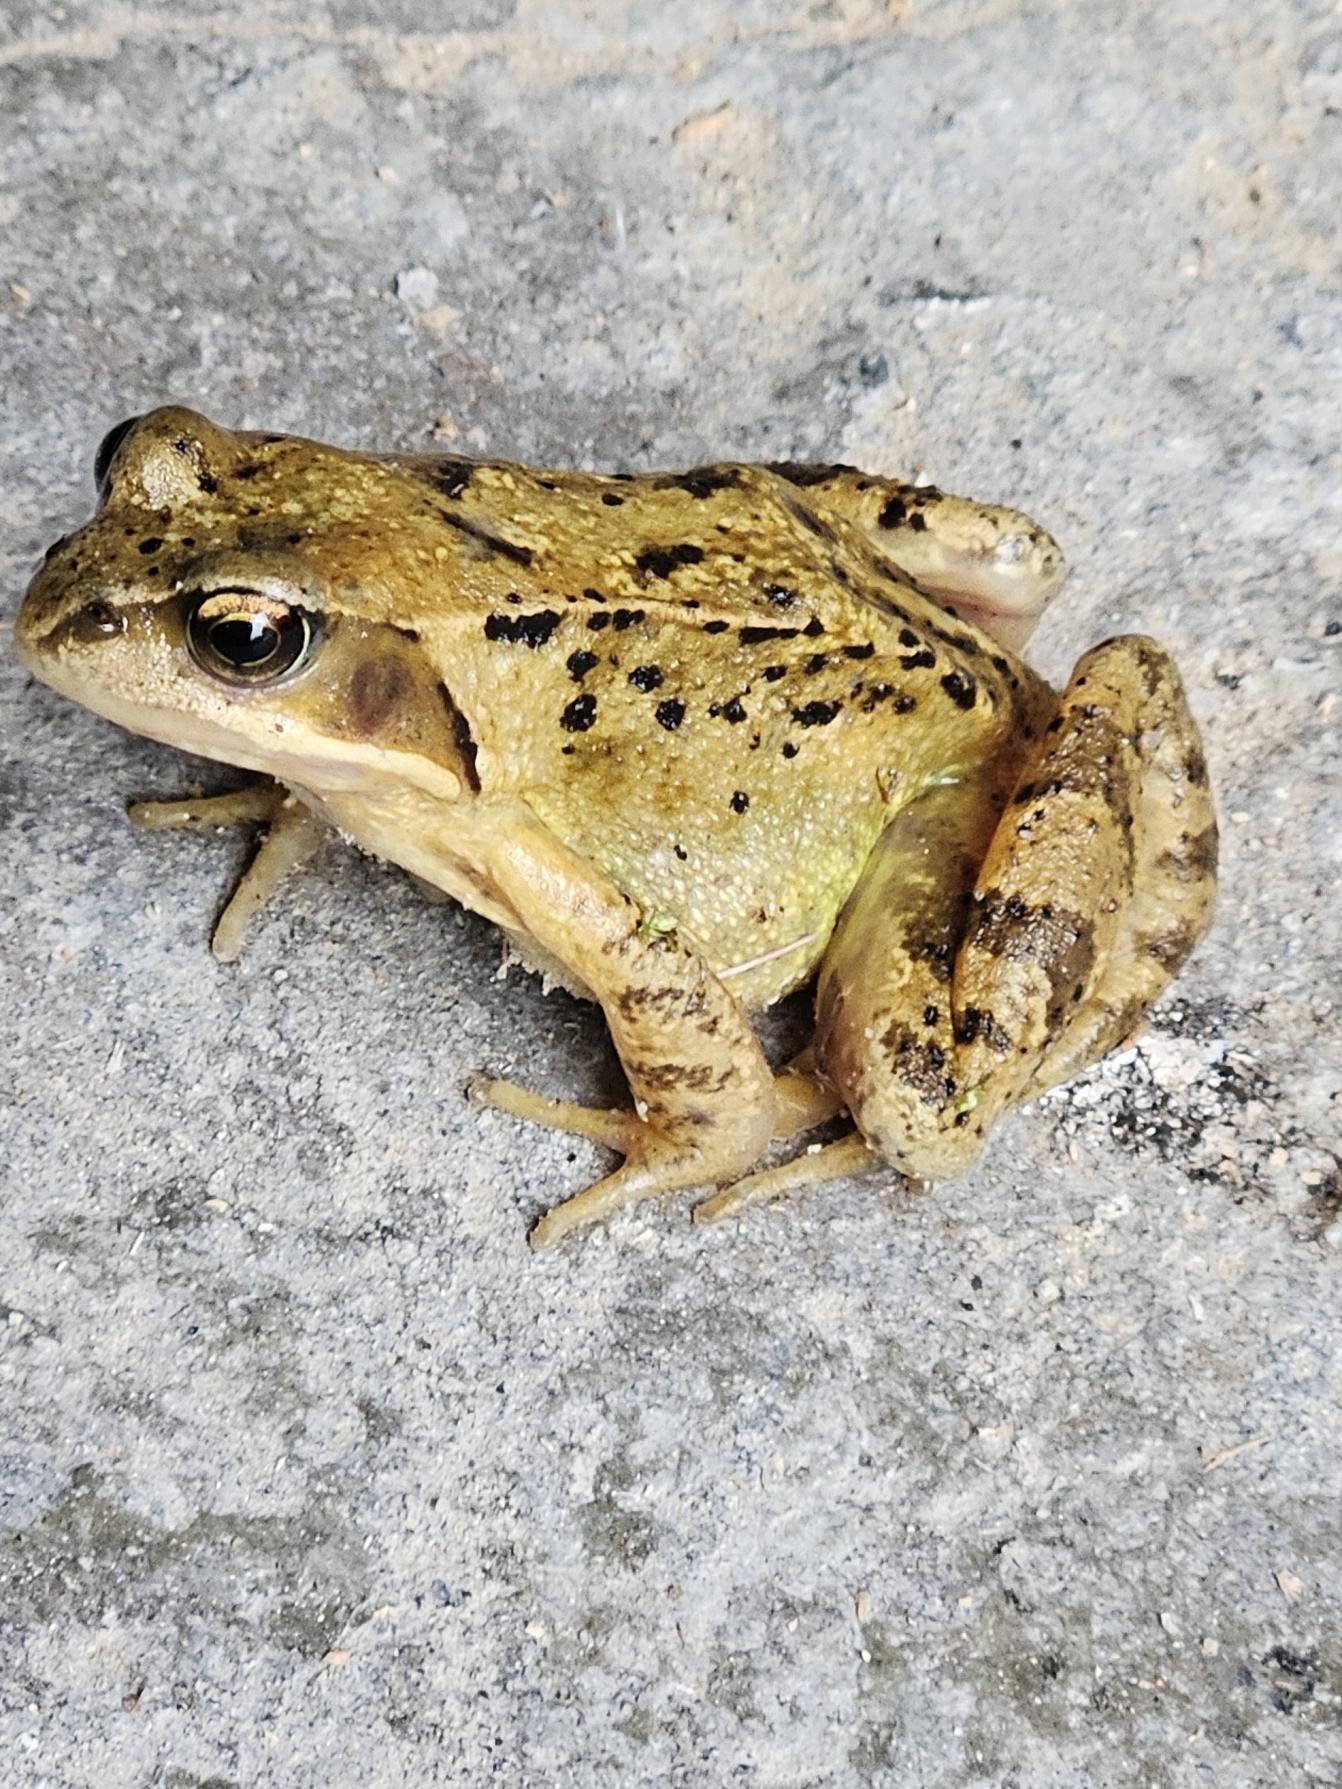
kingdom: Animalia
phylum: Chordata
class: Amphibia
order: Anura
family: Ranidae
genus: Rana
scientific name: Rana temporaria
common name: Butsnudet frø
